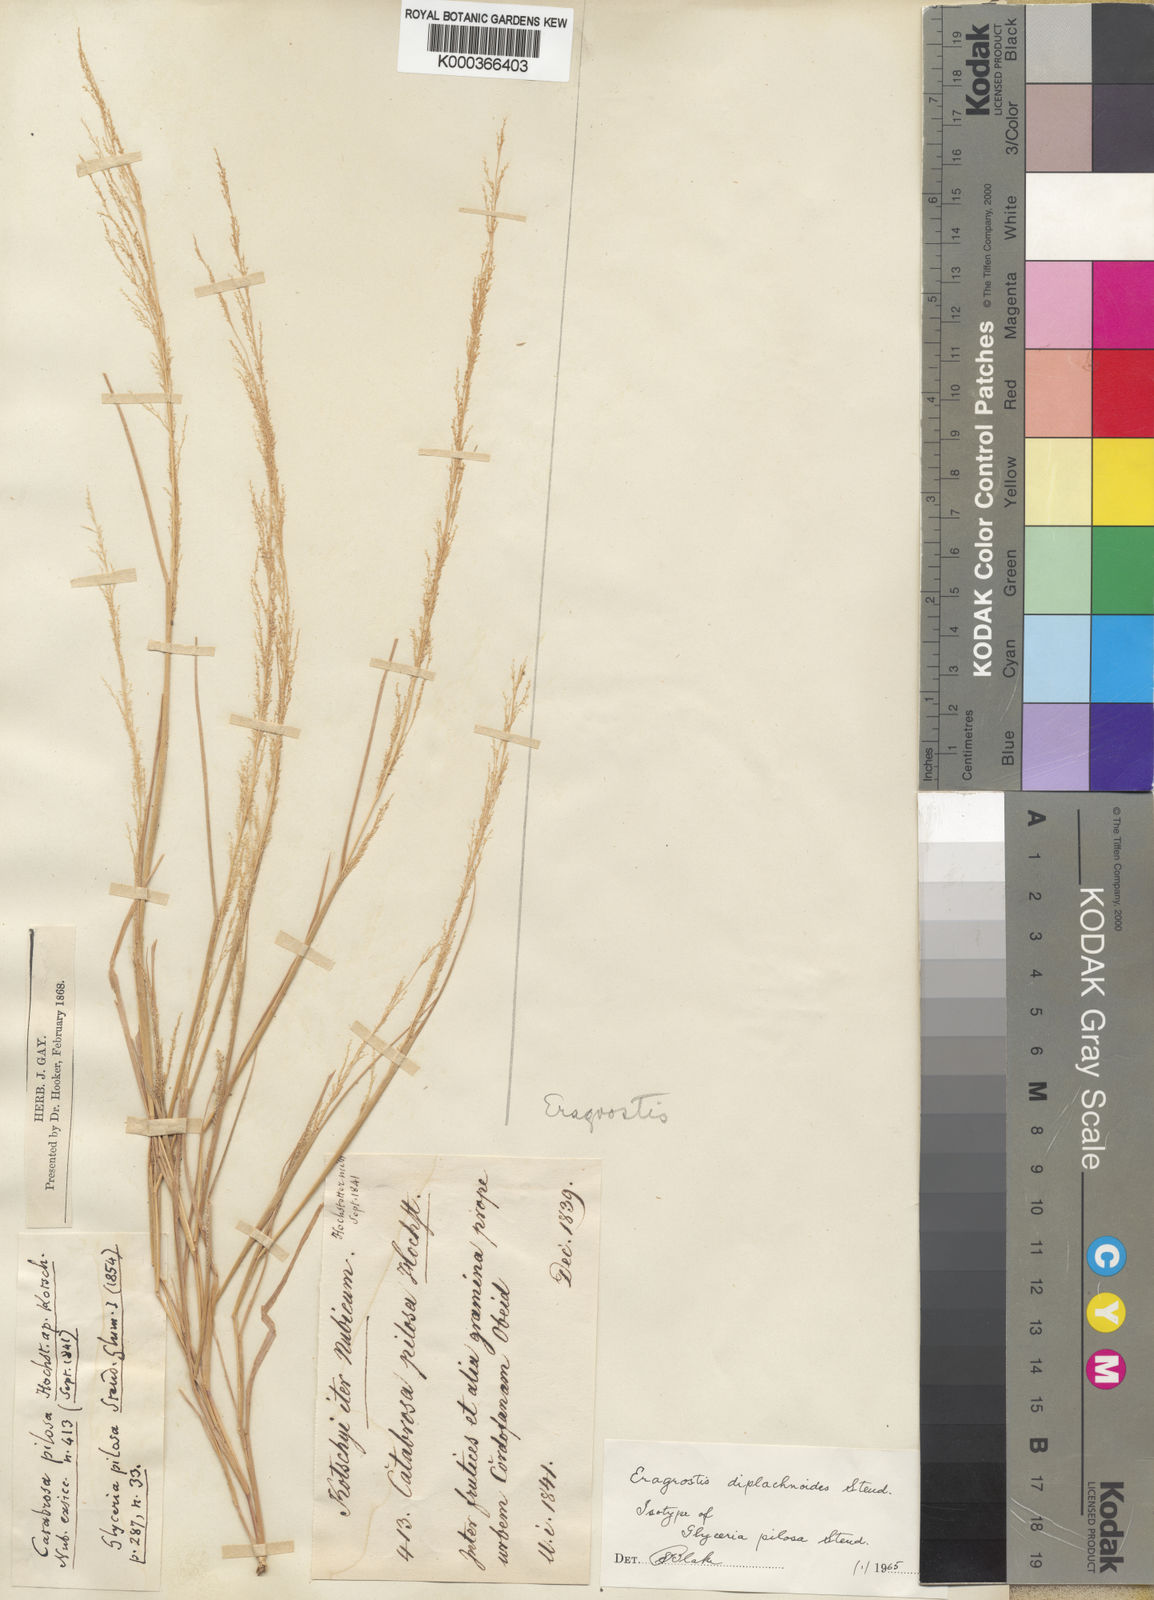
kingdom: Plantae
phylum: Tracheophyta
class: Liliopsida
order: Poales
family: Poaceae
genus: Eragrostis
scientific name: Eragrostis japonica
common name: Pond lovegrass
